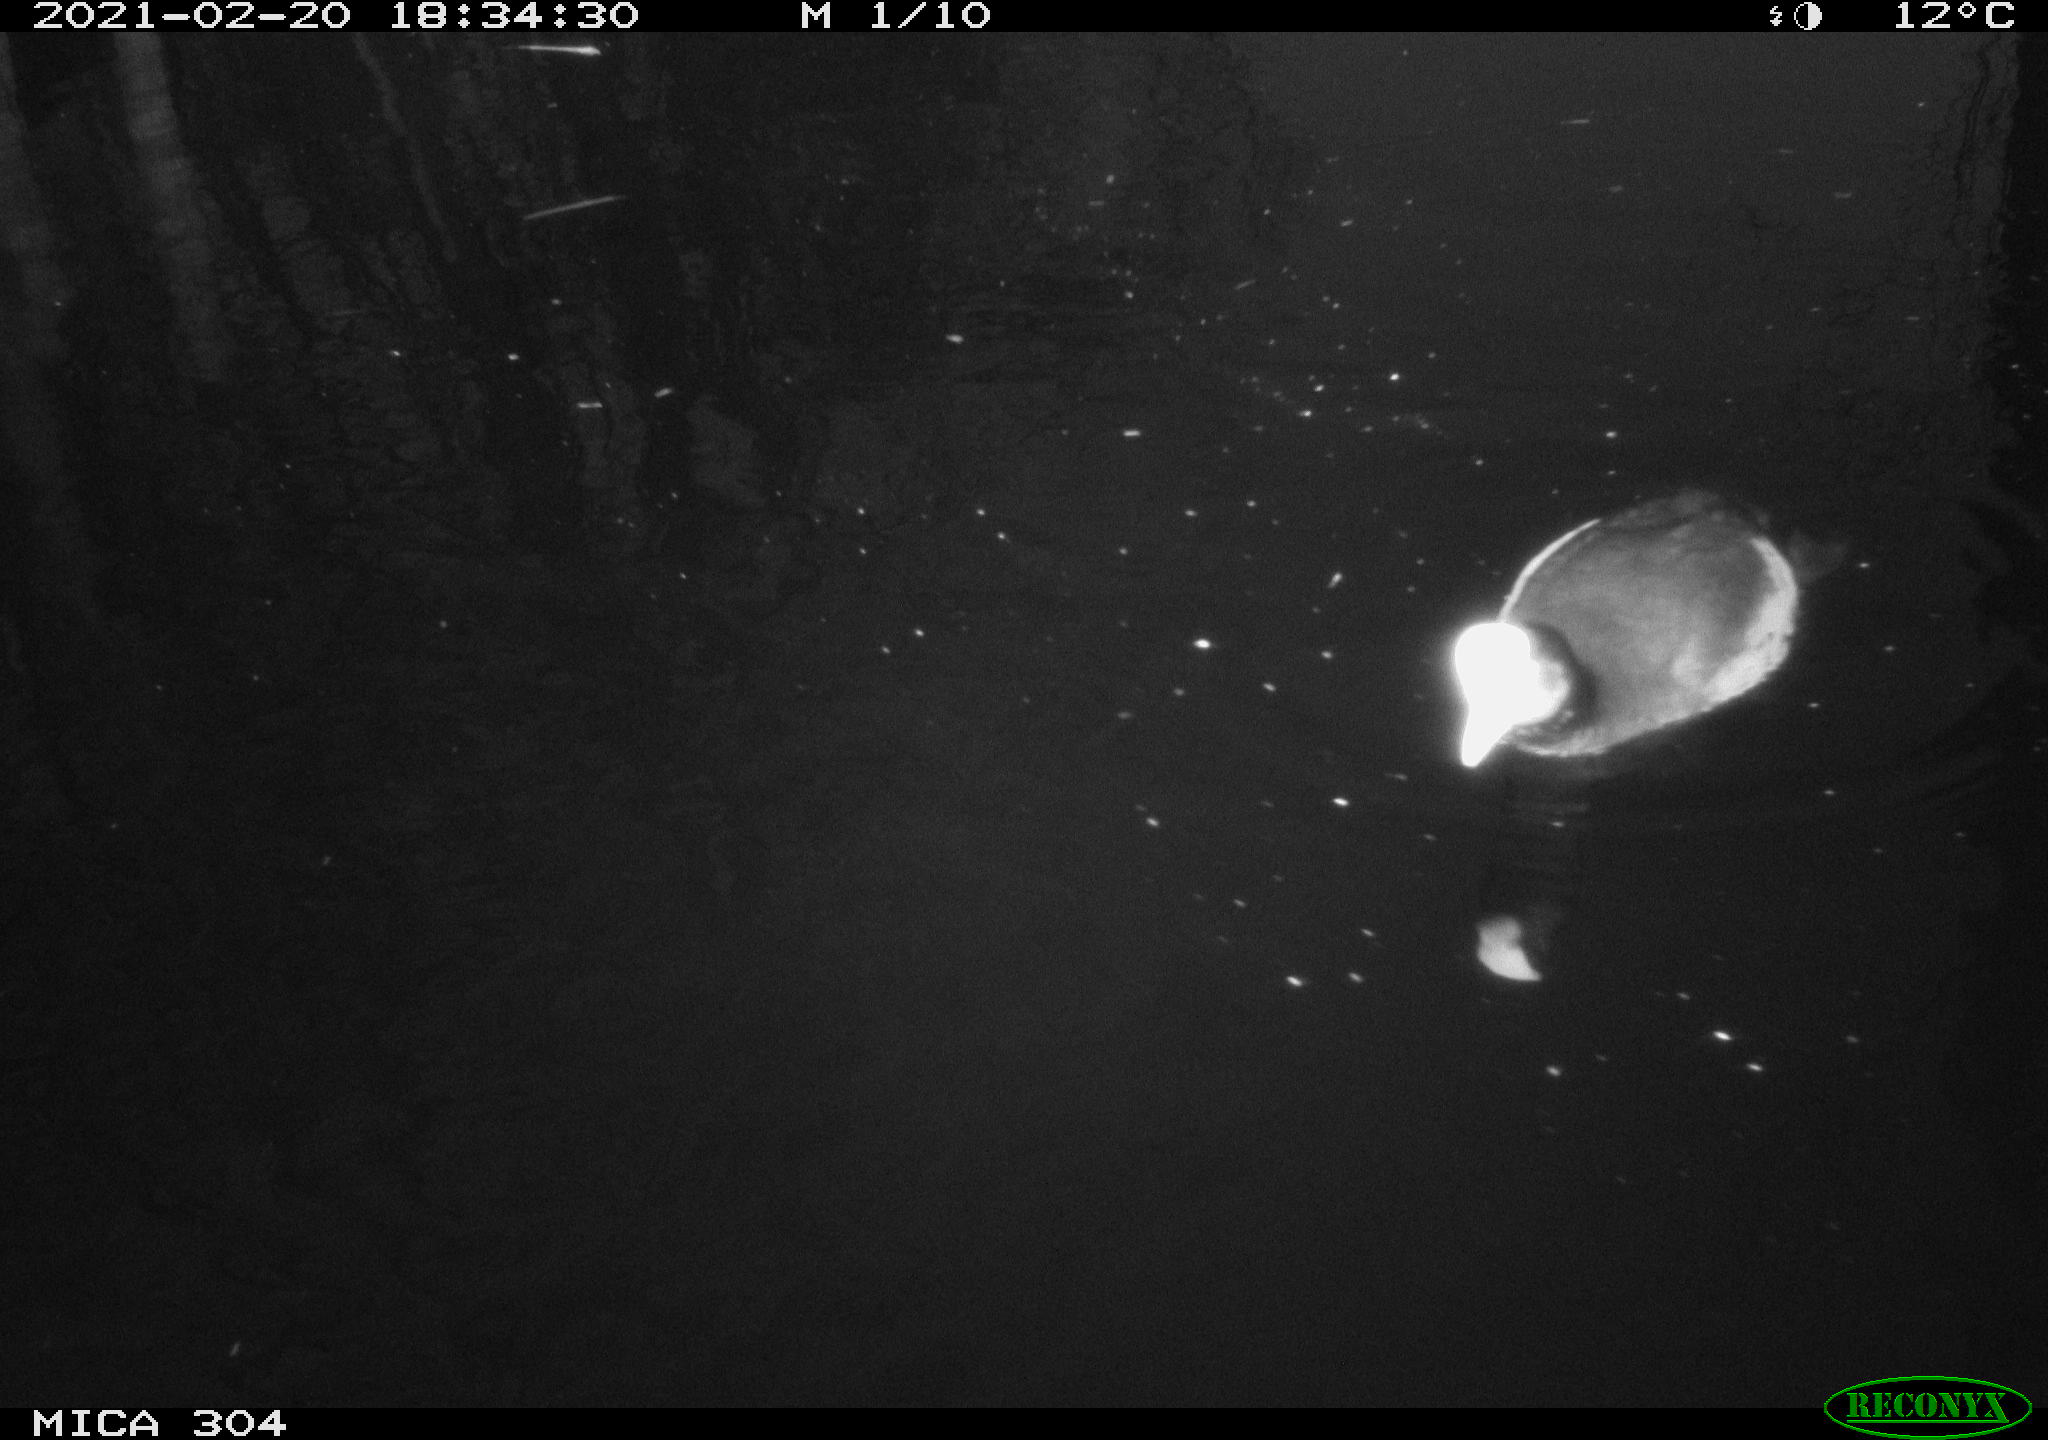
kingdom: Animalia
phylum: Chordata
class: Aves
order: Anseriformes
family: Anatidae
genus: Mareca
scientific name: Mareca strepera
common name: Gadwall
